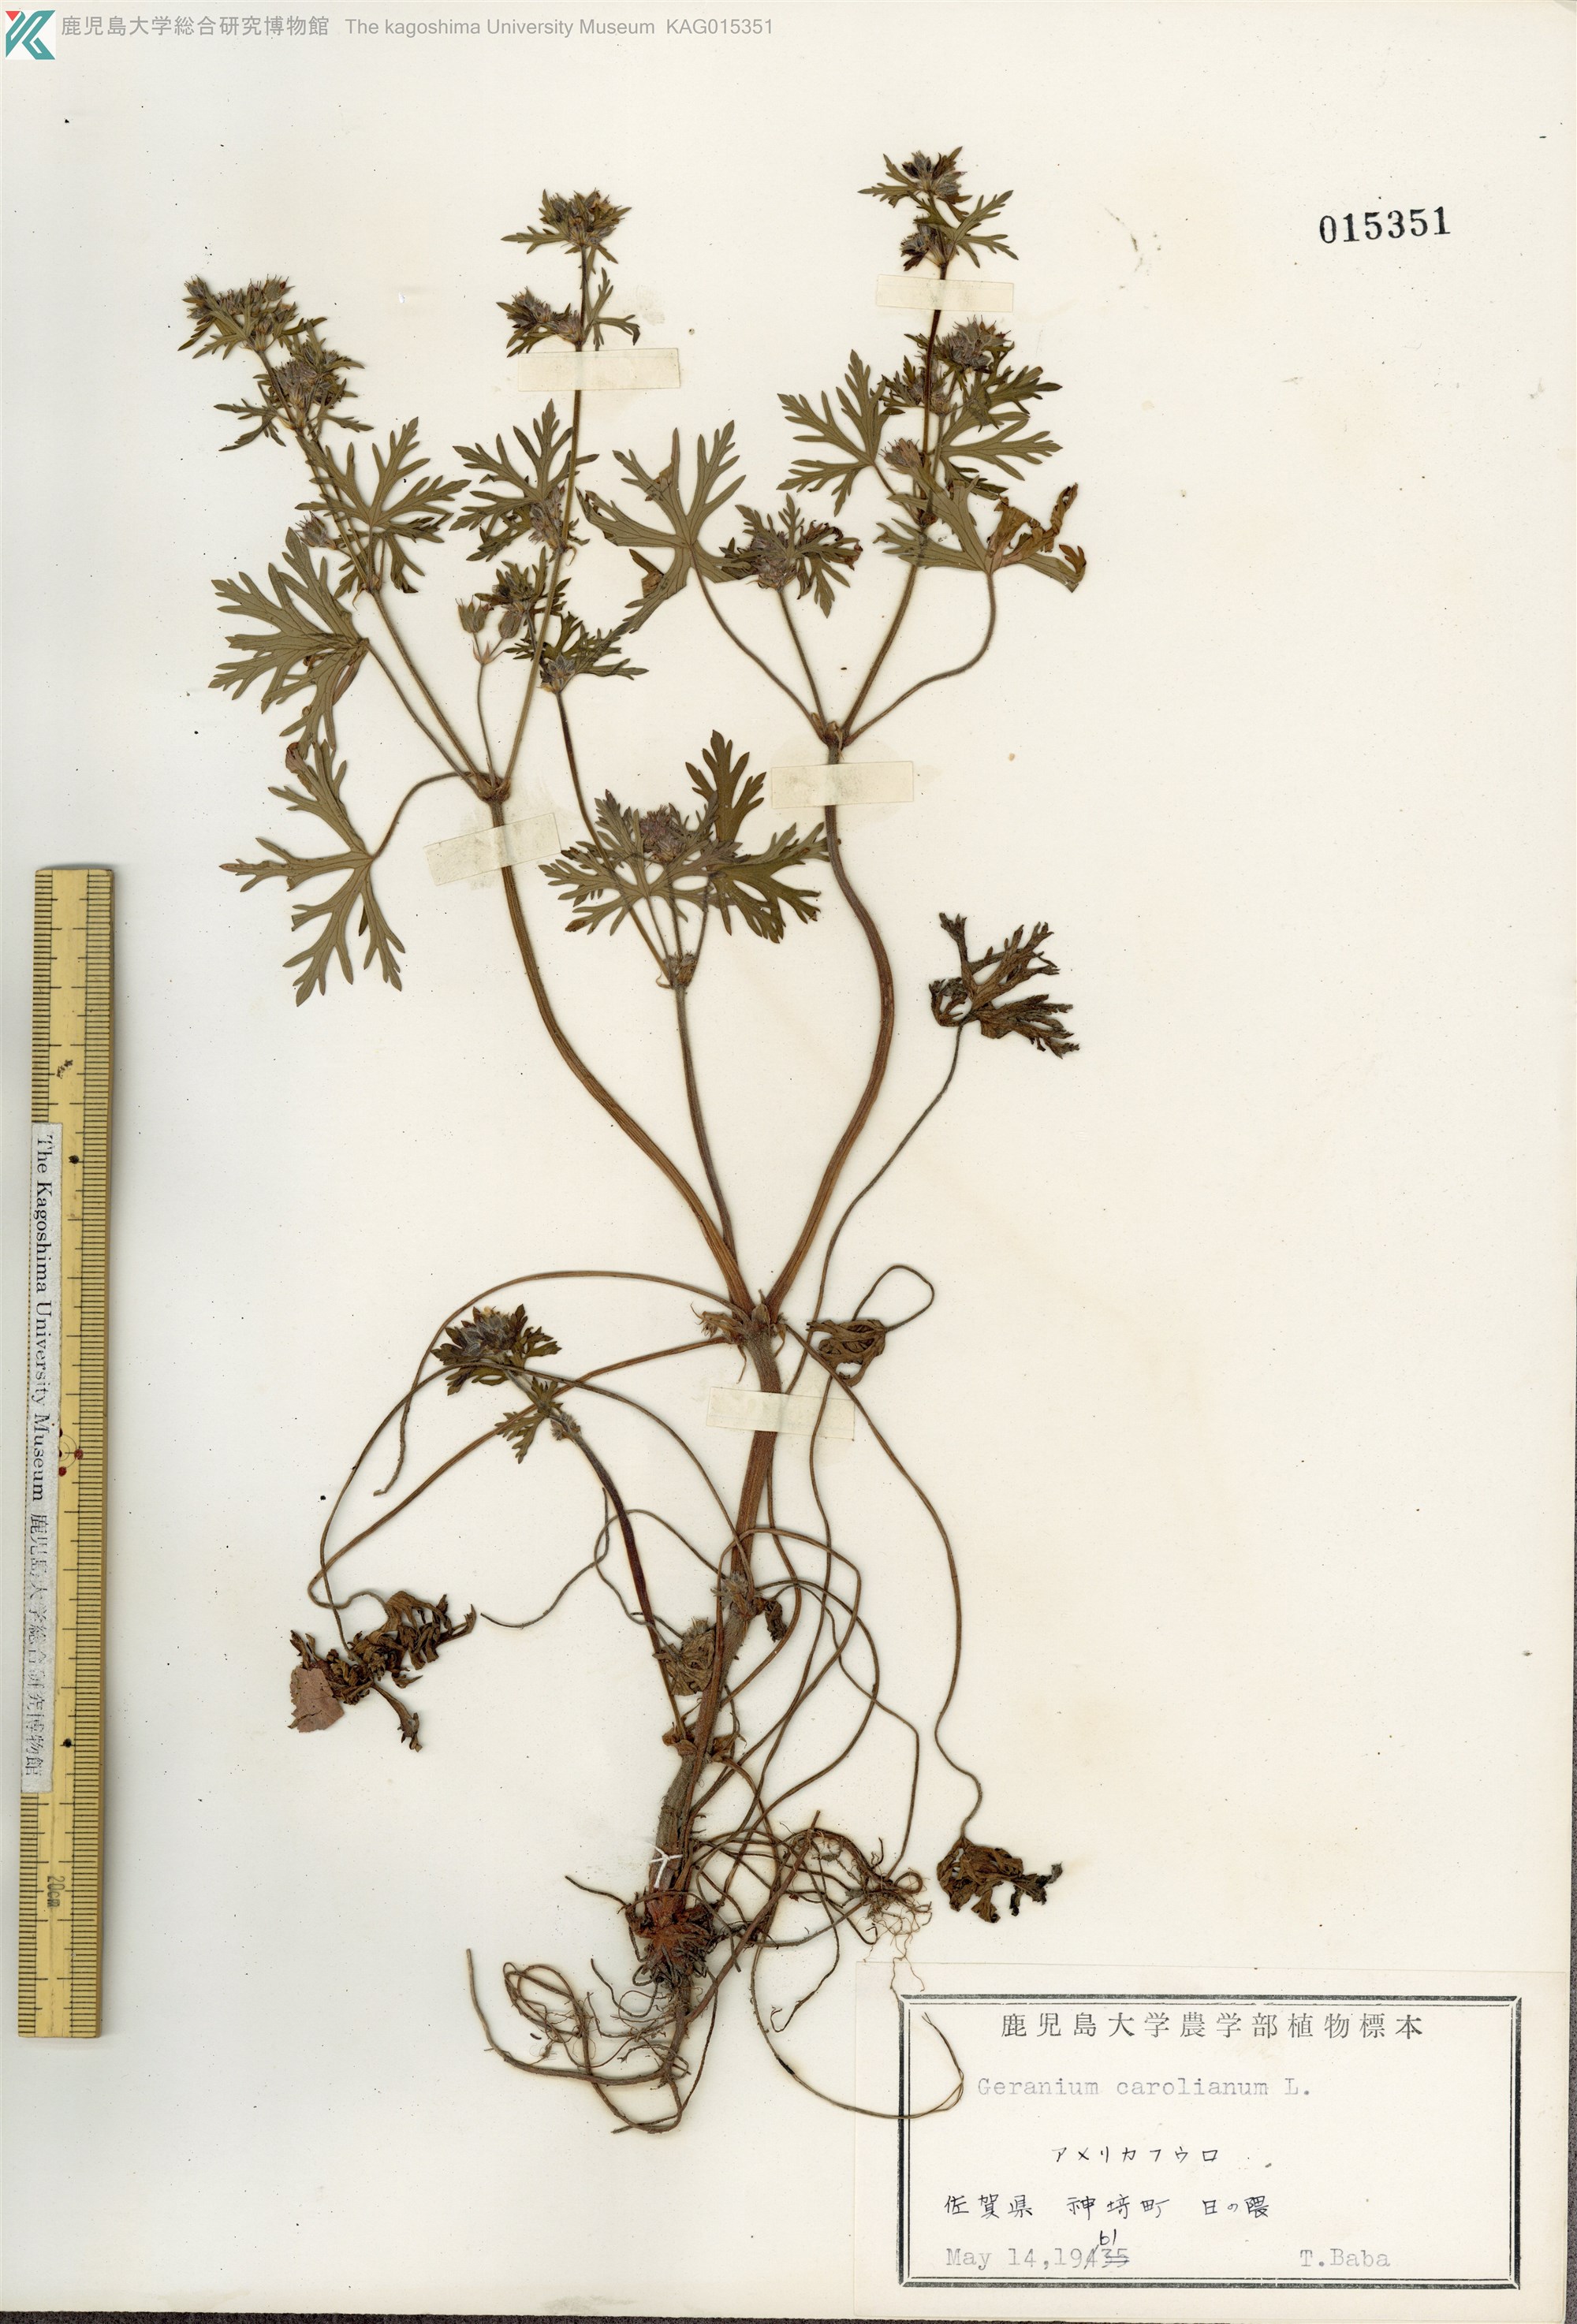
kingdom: Plantae
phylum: Tracheophyta
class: Magnoliopsida
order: Geraniales
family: Geraniaceae
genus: Geranium
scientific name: Geranium carolinianum
